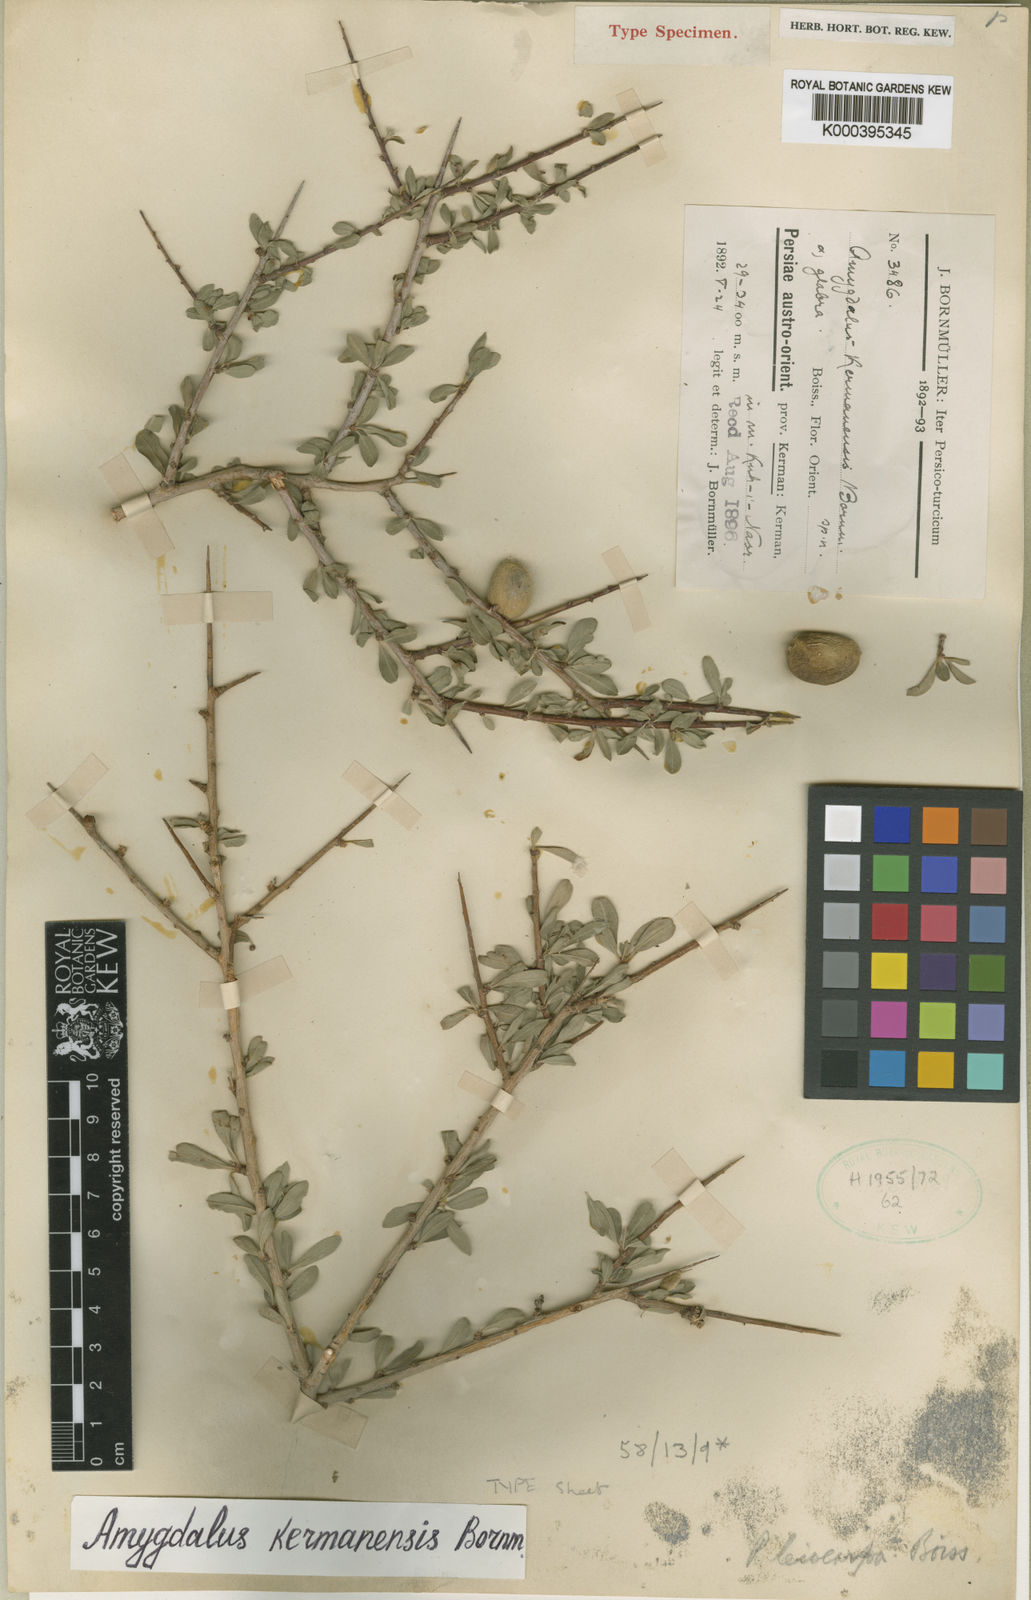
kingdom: Plantae
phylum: Tracheophyta
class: Magnoliopsida
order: Rosales
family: Rosaceae
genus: Prunus
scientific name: Prunus
